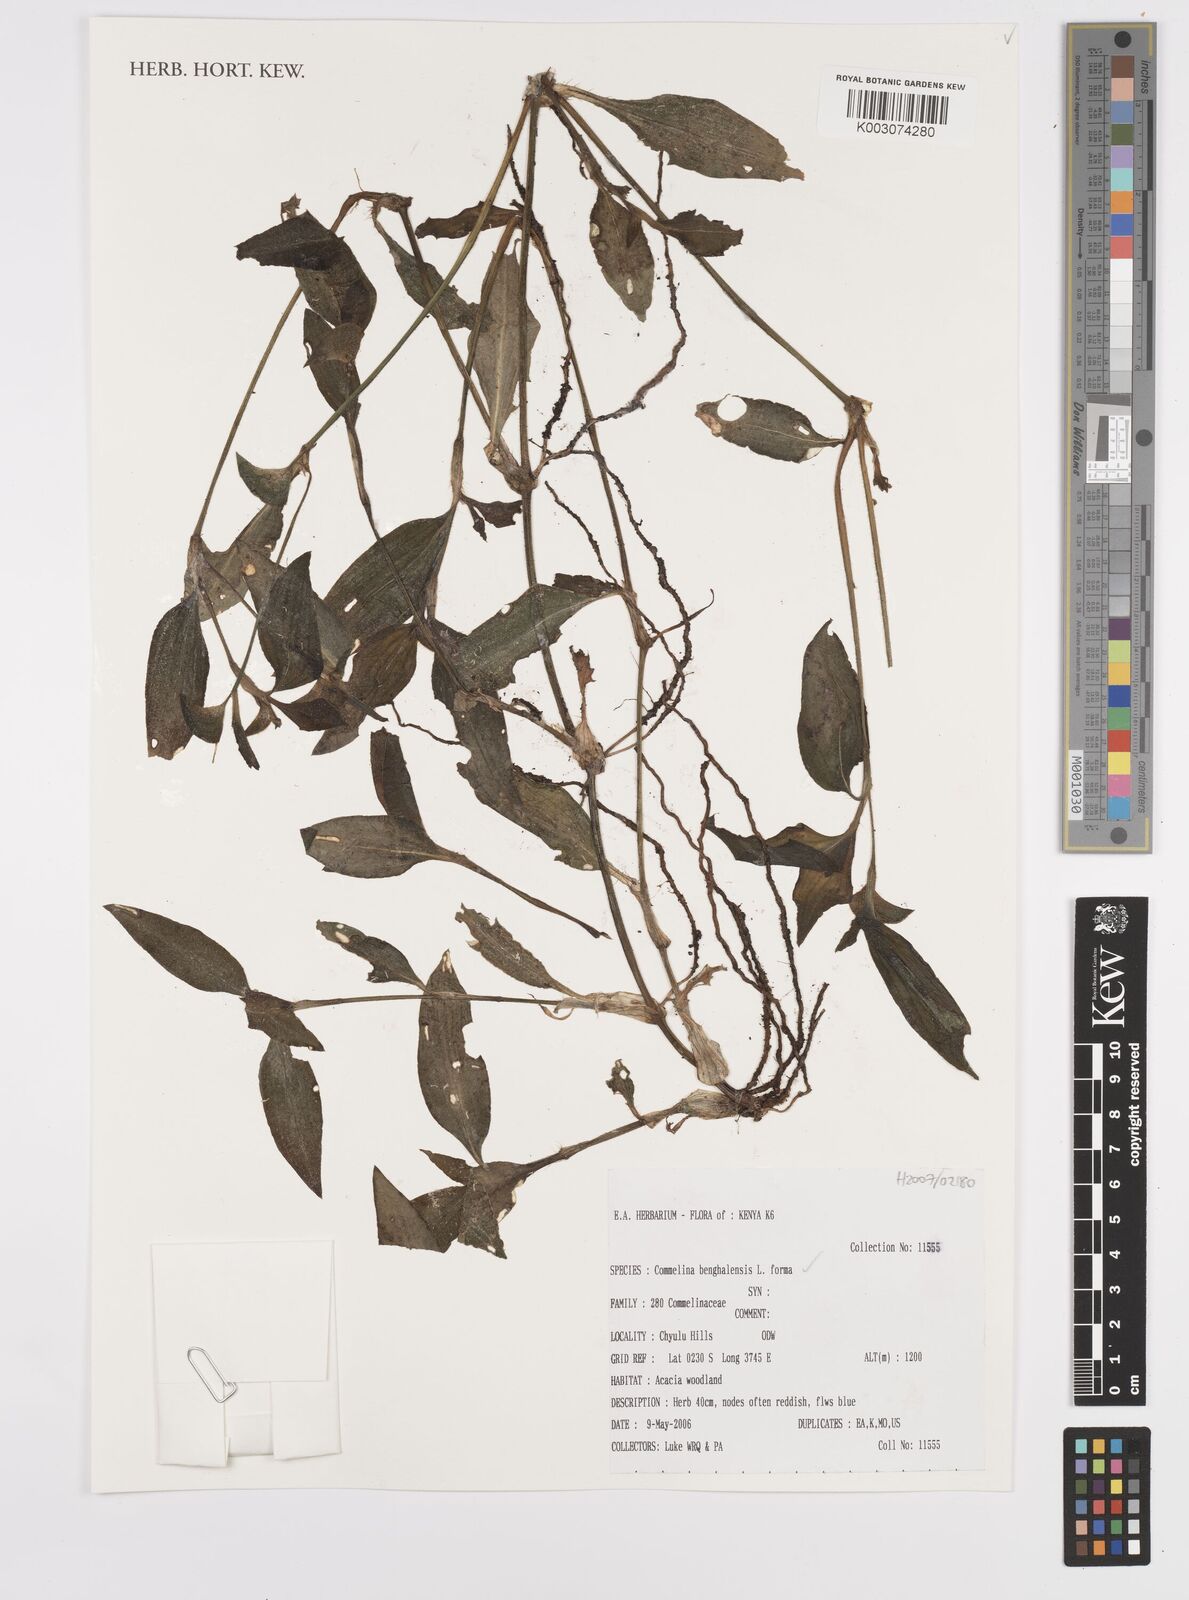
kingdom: Plantae
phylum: Tracheophyta
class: Liliopsida
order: Commelinales
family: Commelinaceae
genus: Commelina
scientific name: Commelina benghalensis
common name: Jio
